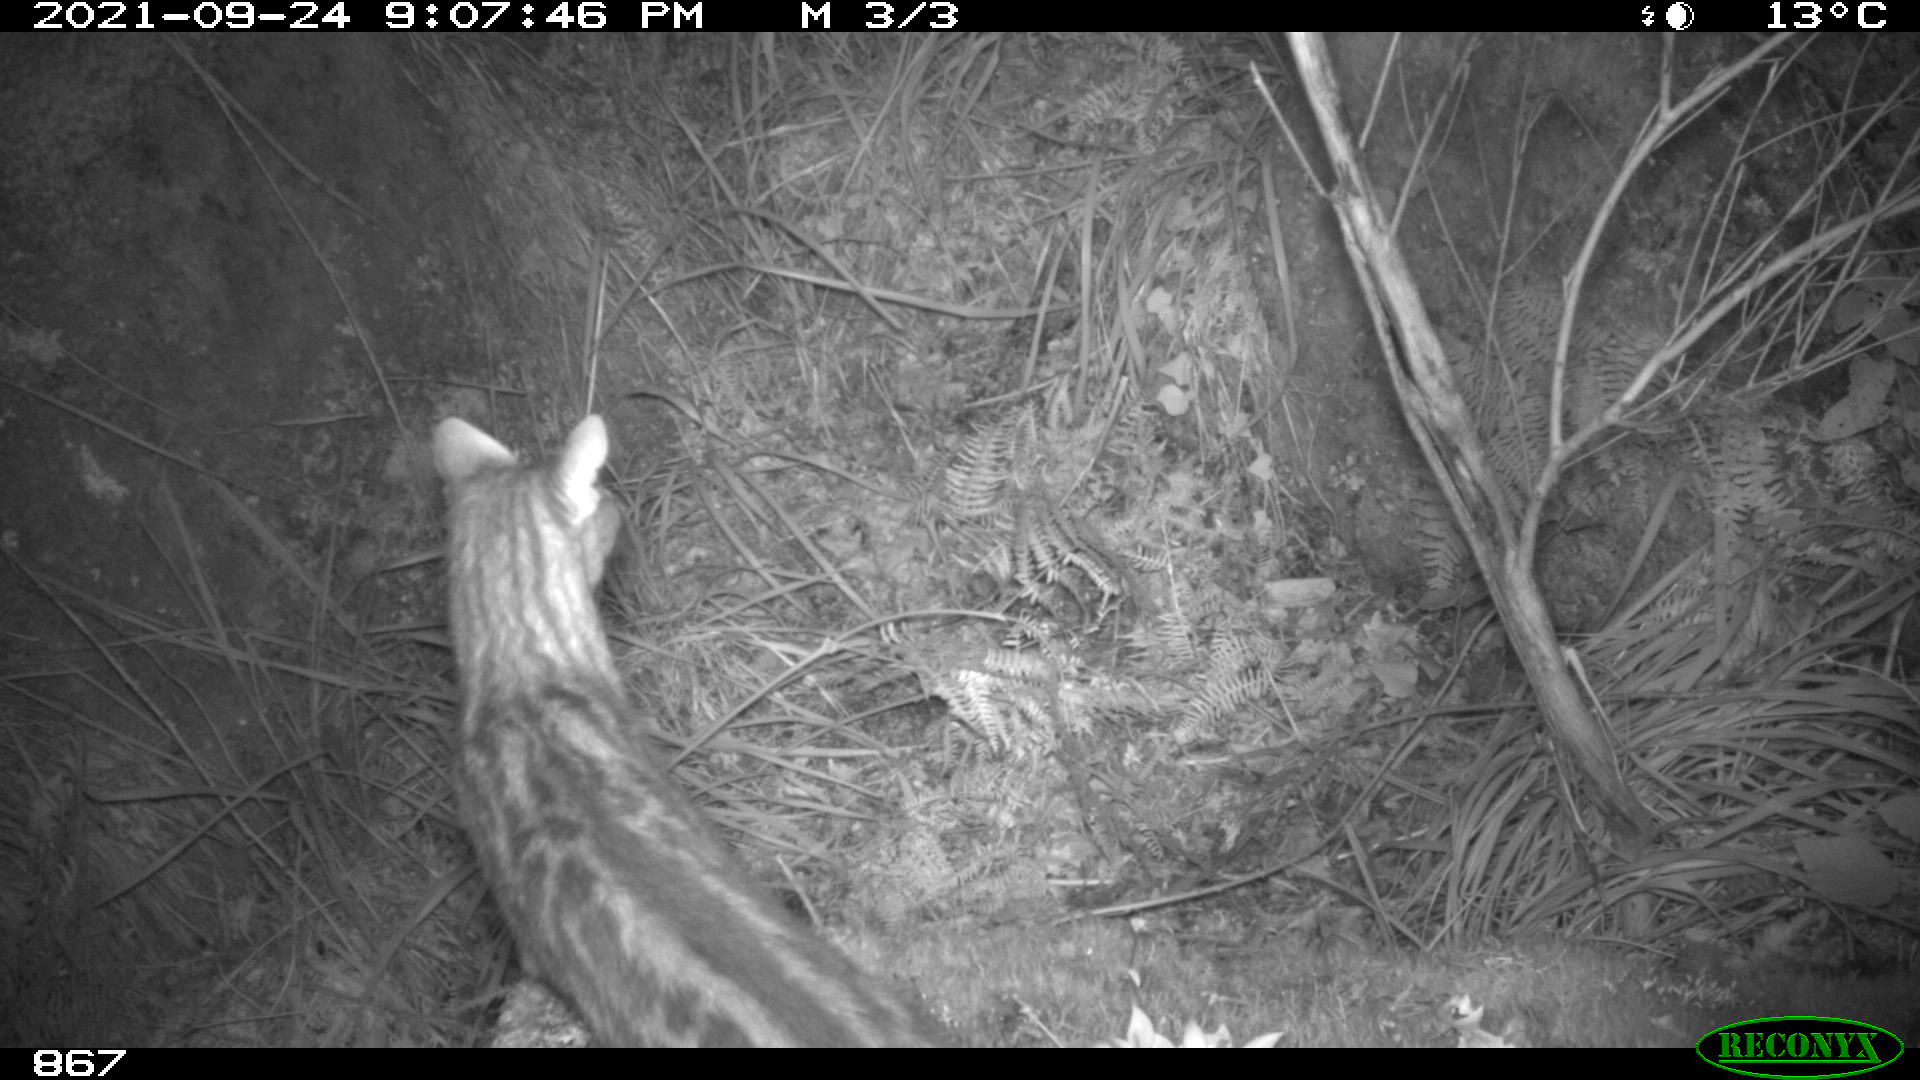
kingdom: Animalia
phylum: Chordata
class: Mammalia
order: Carnivora
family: Viverridae
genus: Genetta
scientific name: Genetta genetta
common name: Common genet
